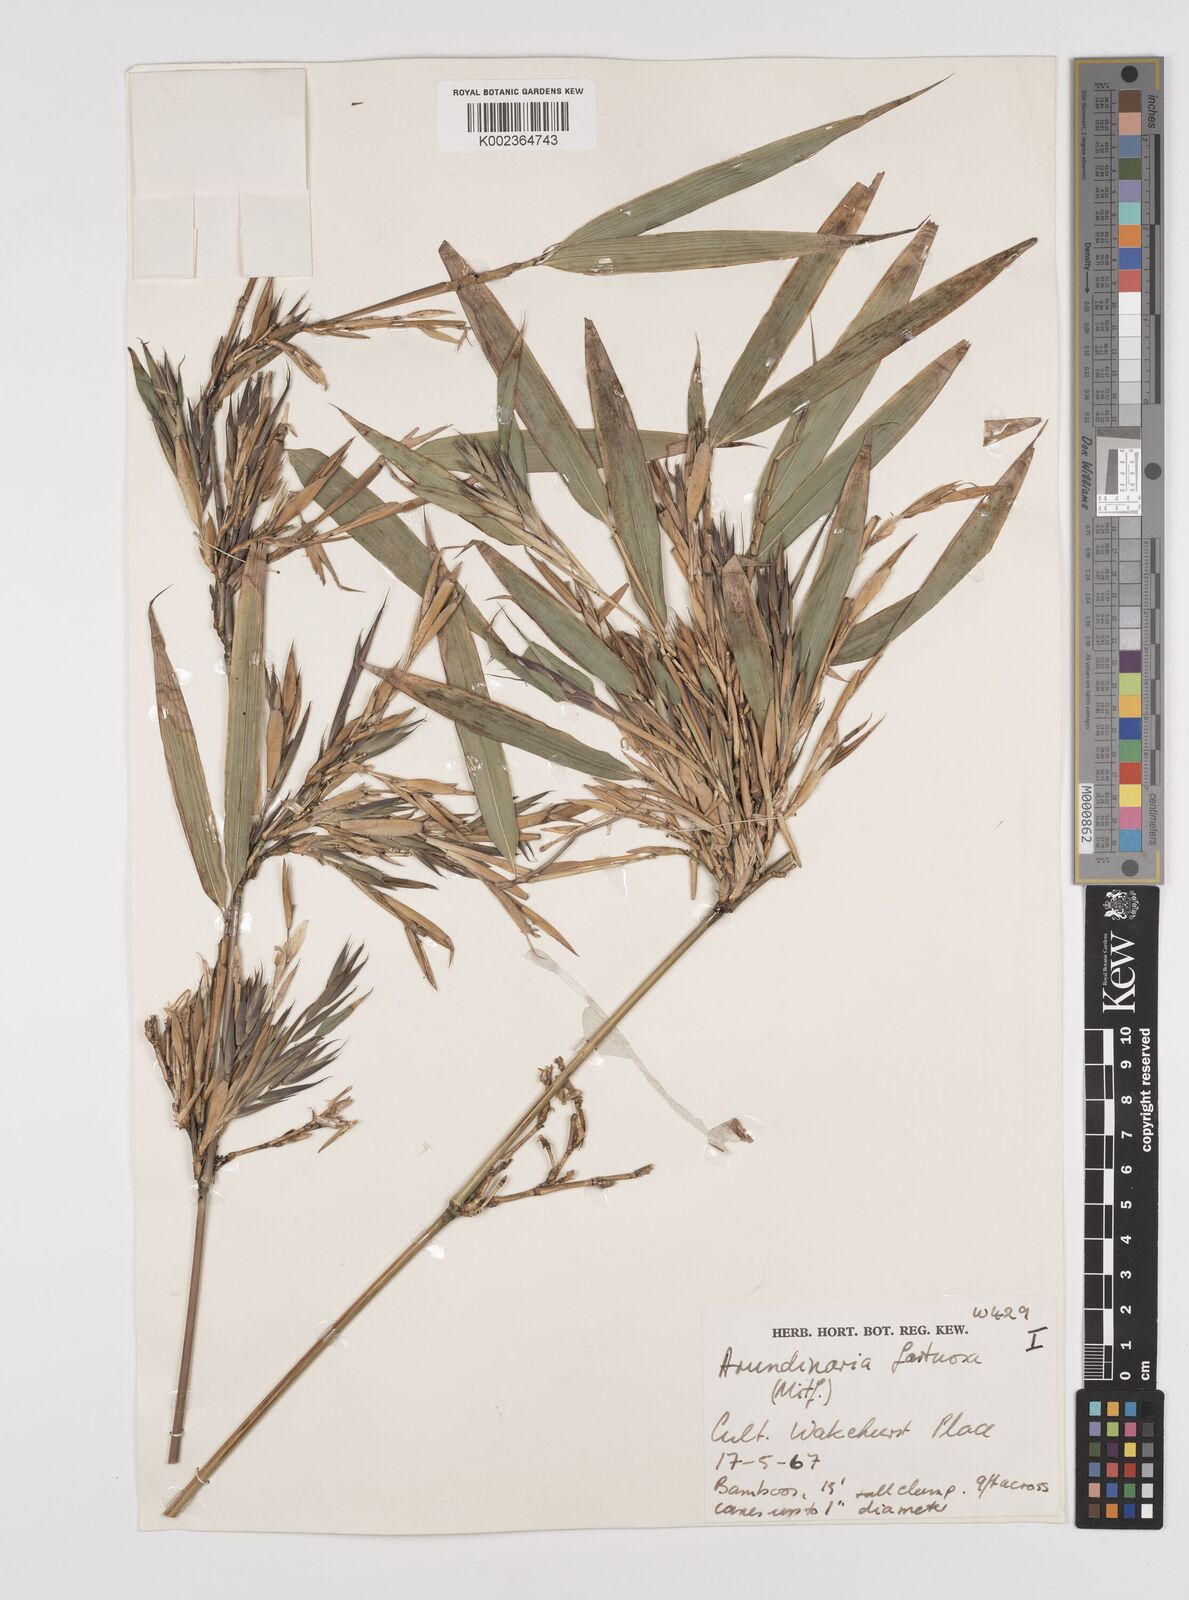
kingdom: Plantae
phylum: Tracheophyta
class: Liliopsida
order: Poales
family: Poaceae
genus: Semiarundinaria
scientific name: Semiarundinaria fastuosa
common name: Narihira bamboo
